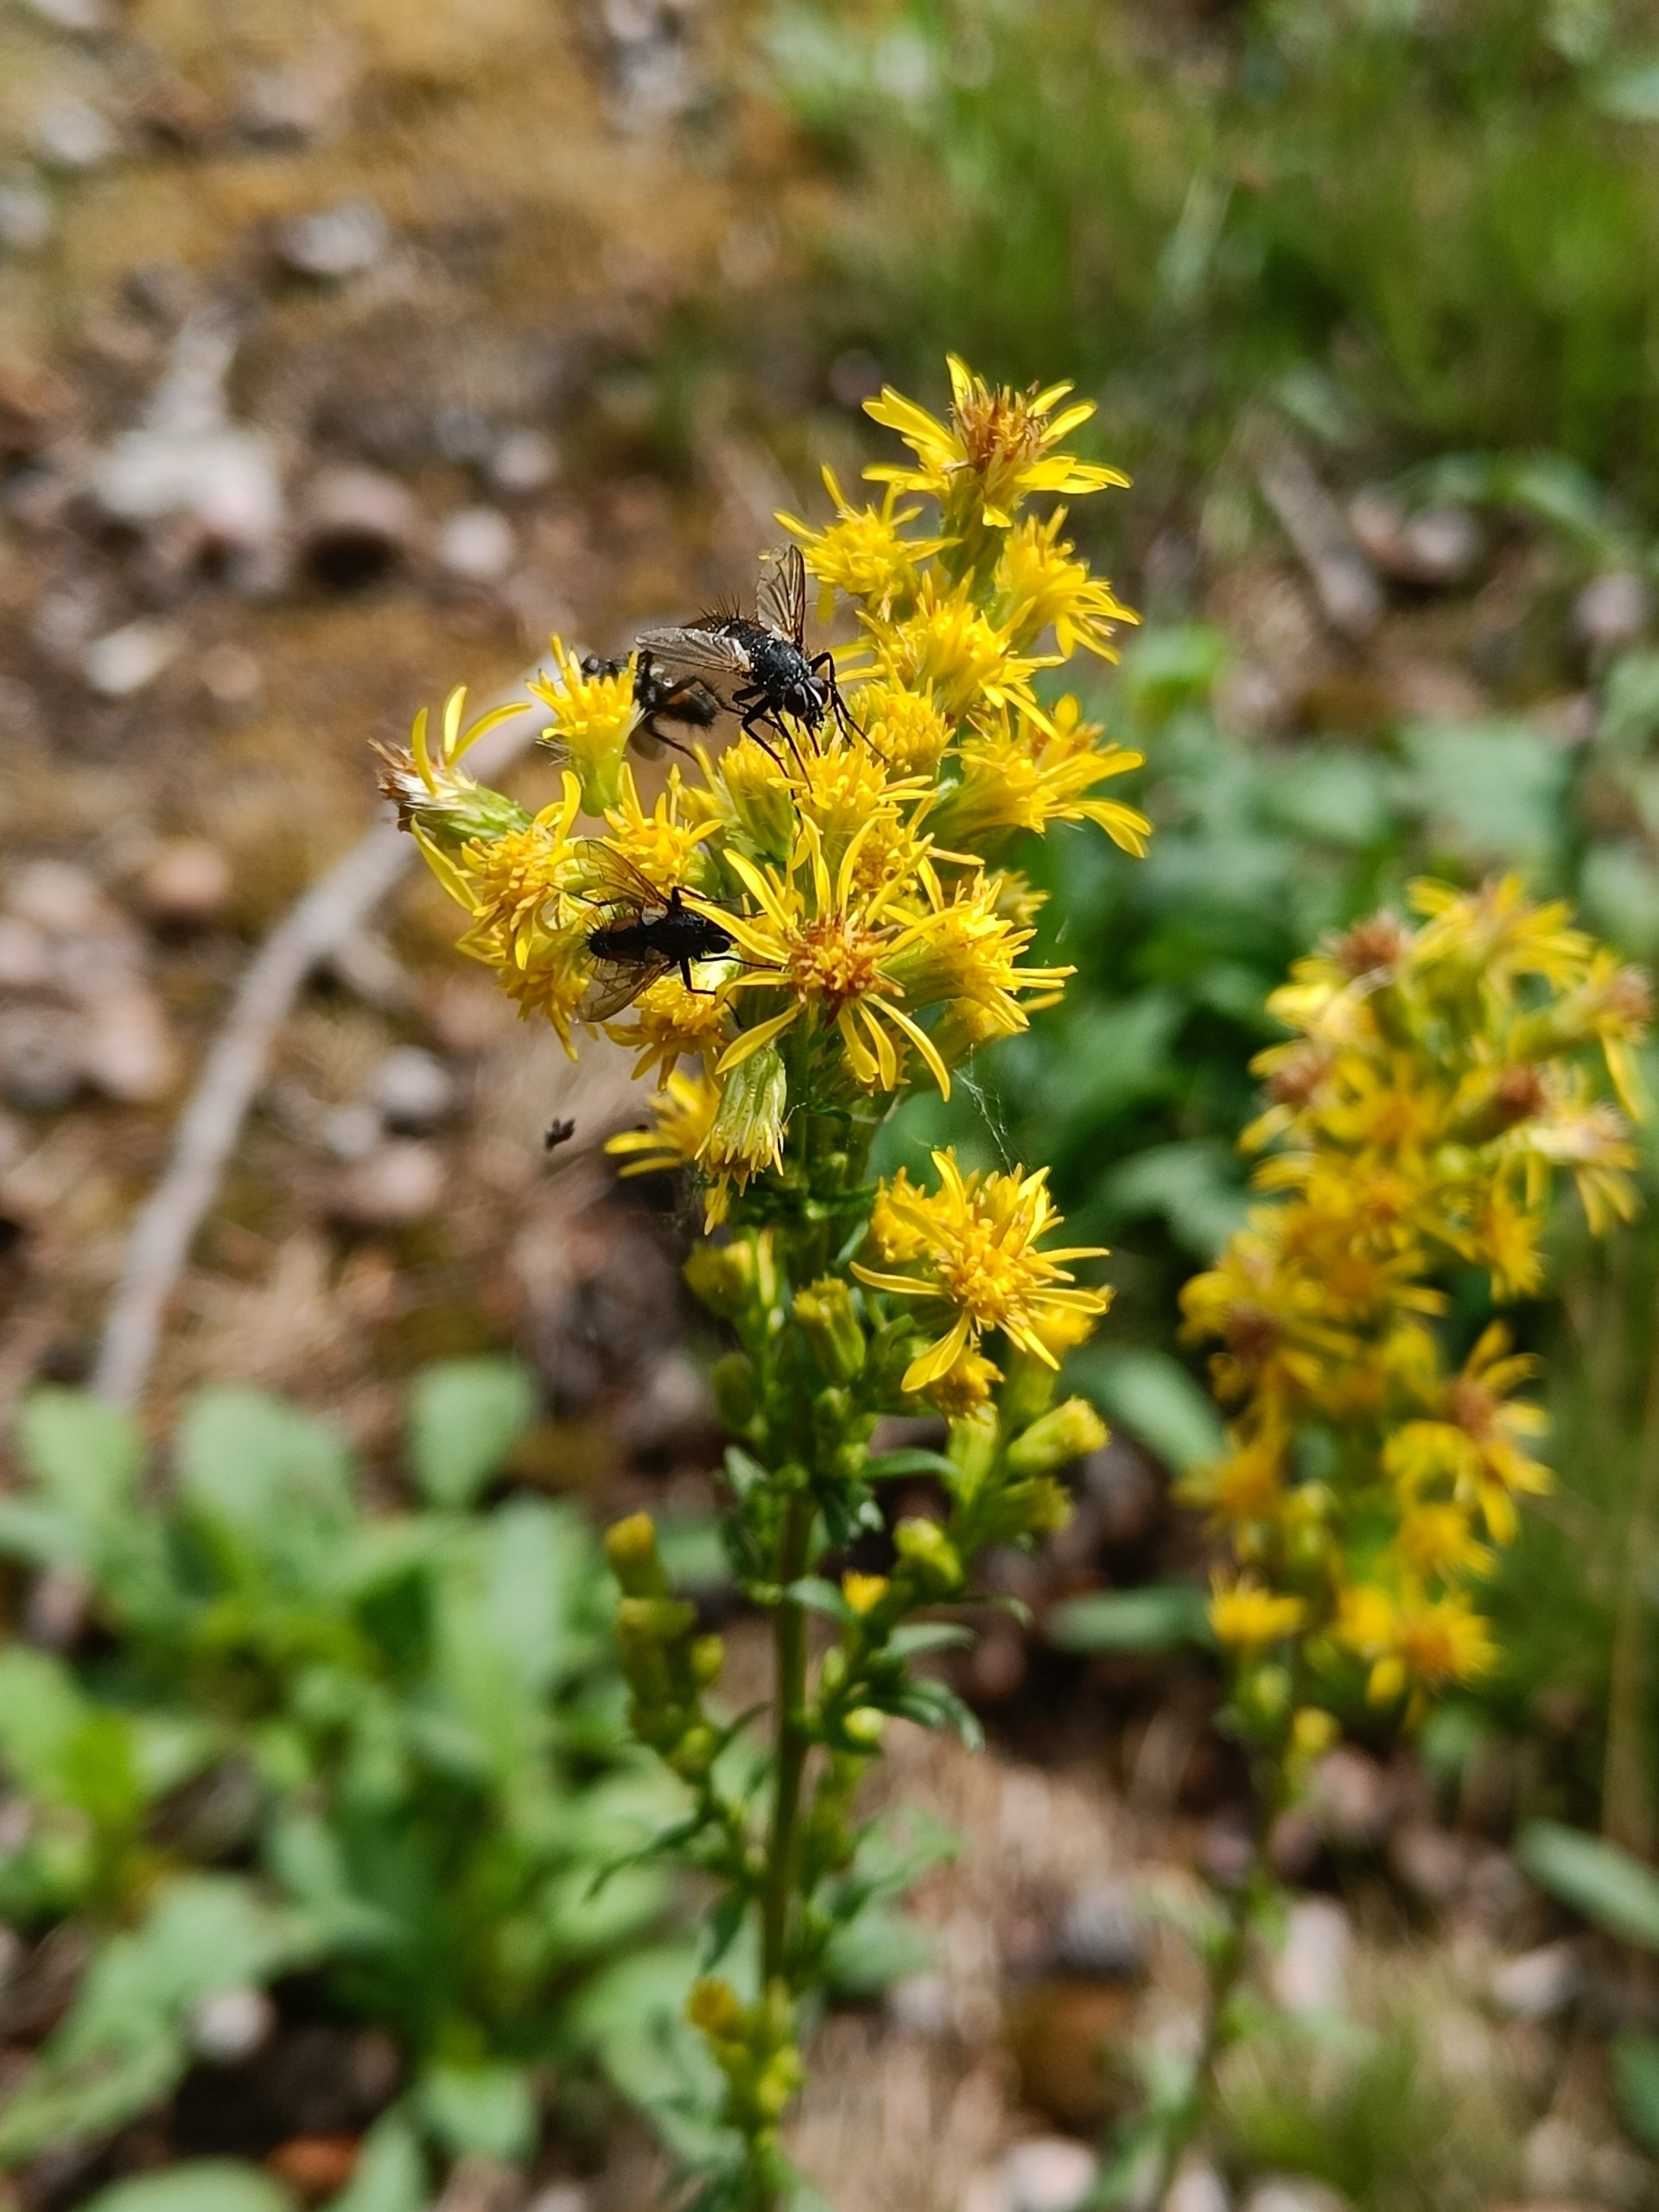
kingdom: Plantae
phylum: Tracheophyta
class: Magnoliopsida
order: Asterales
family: Asteraceae
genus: Solidago
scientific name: Solidago virgaurea
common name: Almindelig gyldenris
